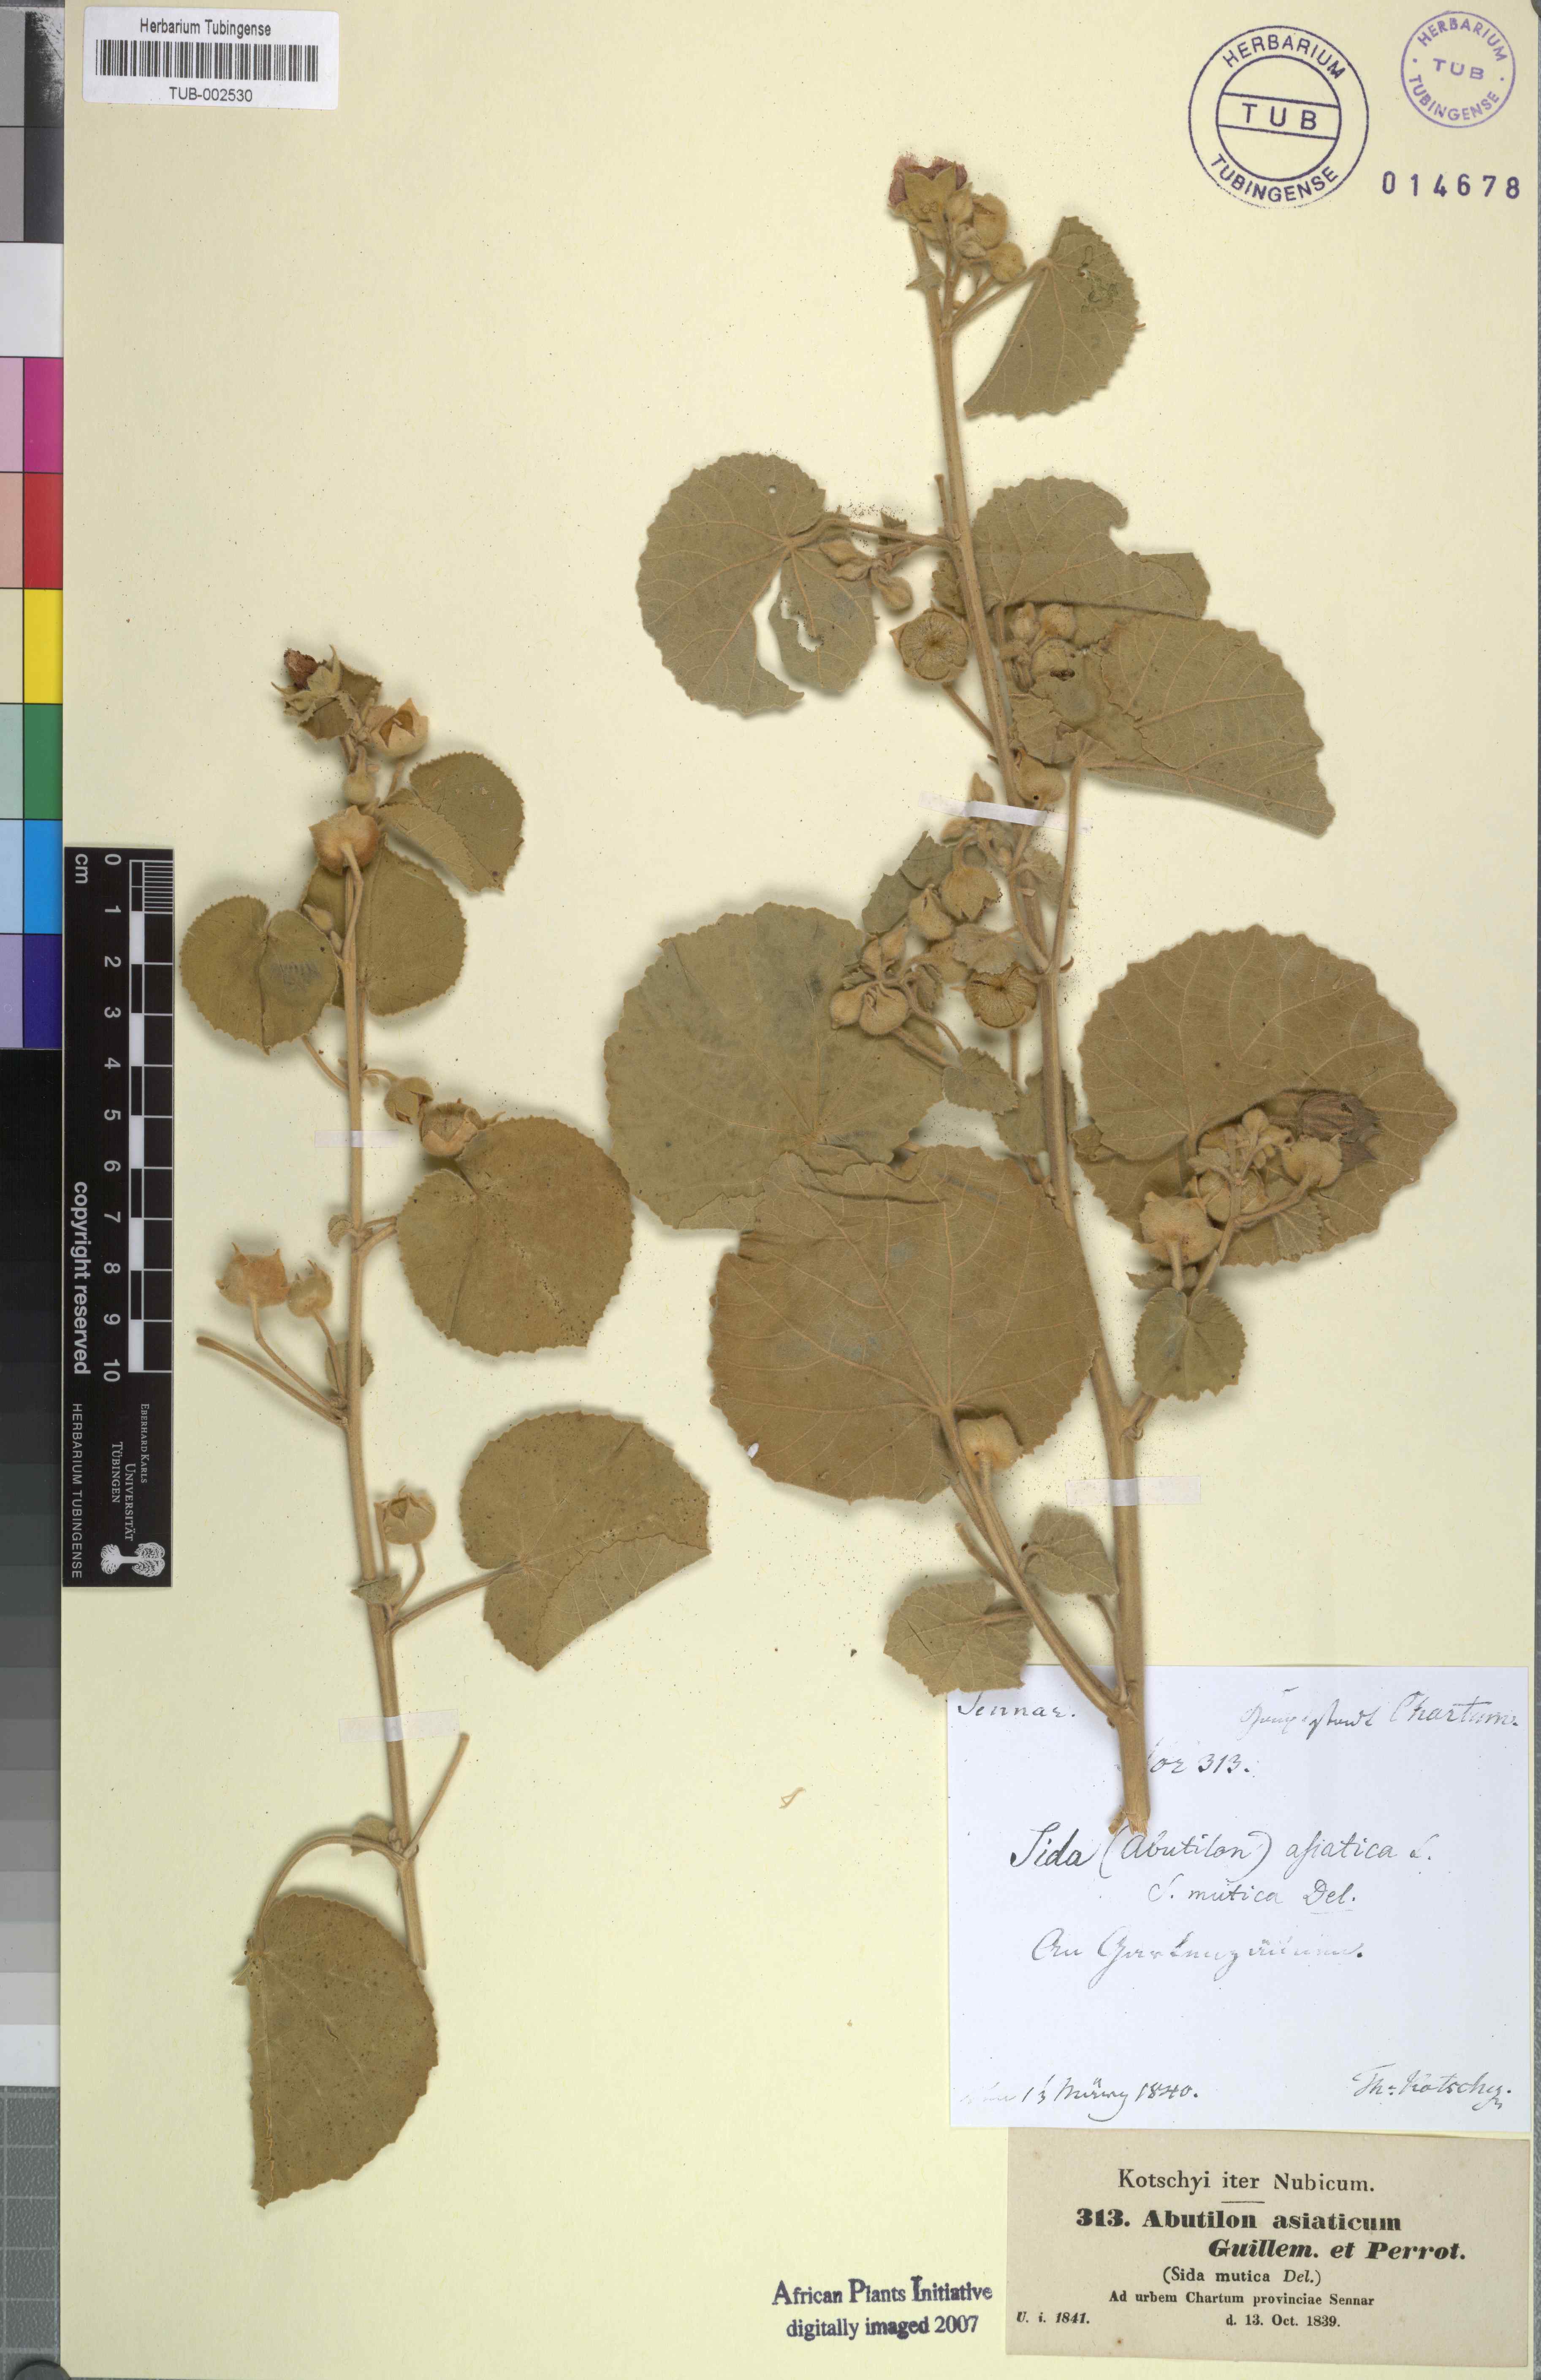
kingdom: Plantae
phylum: Tracheophyta
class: Magnoliopsida
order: Malvales
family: Malvaceae
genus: Abutilon
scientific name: Abutilon pannosum
